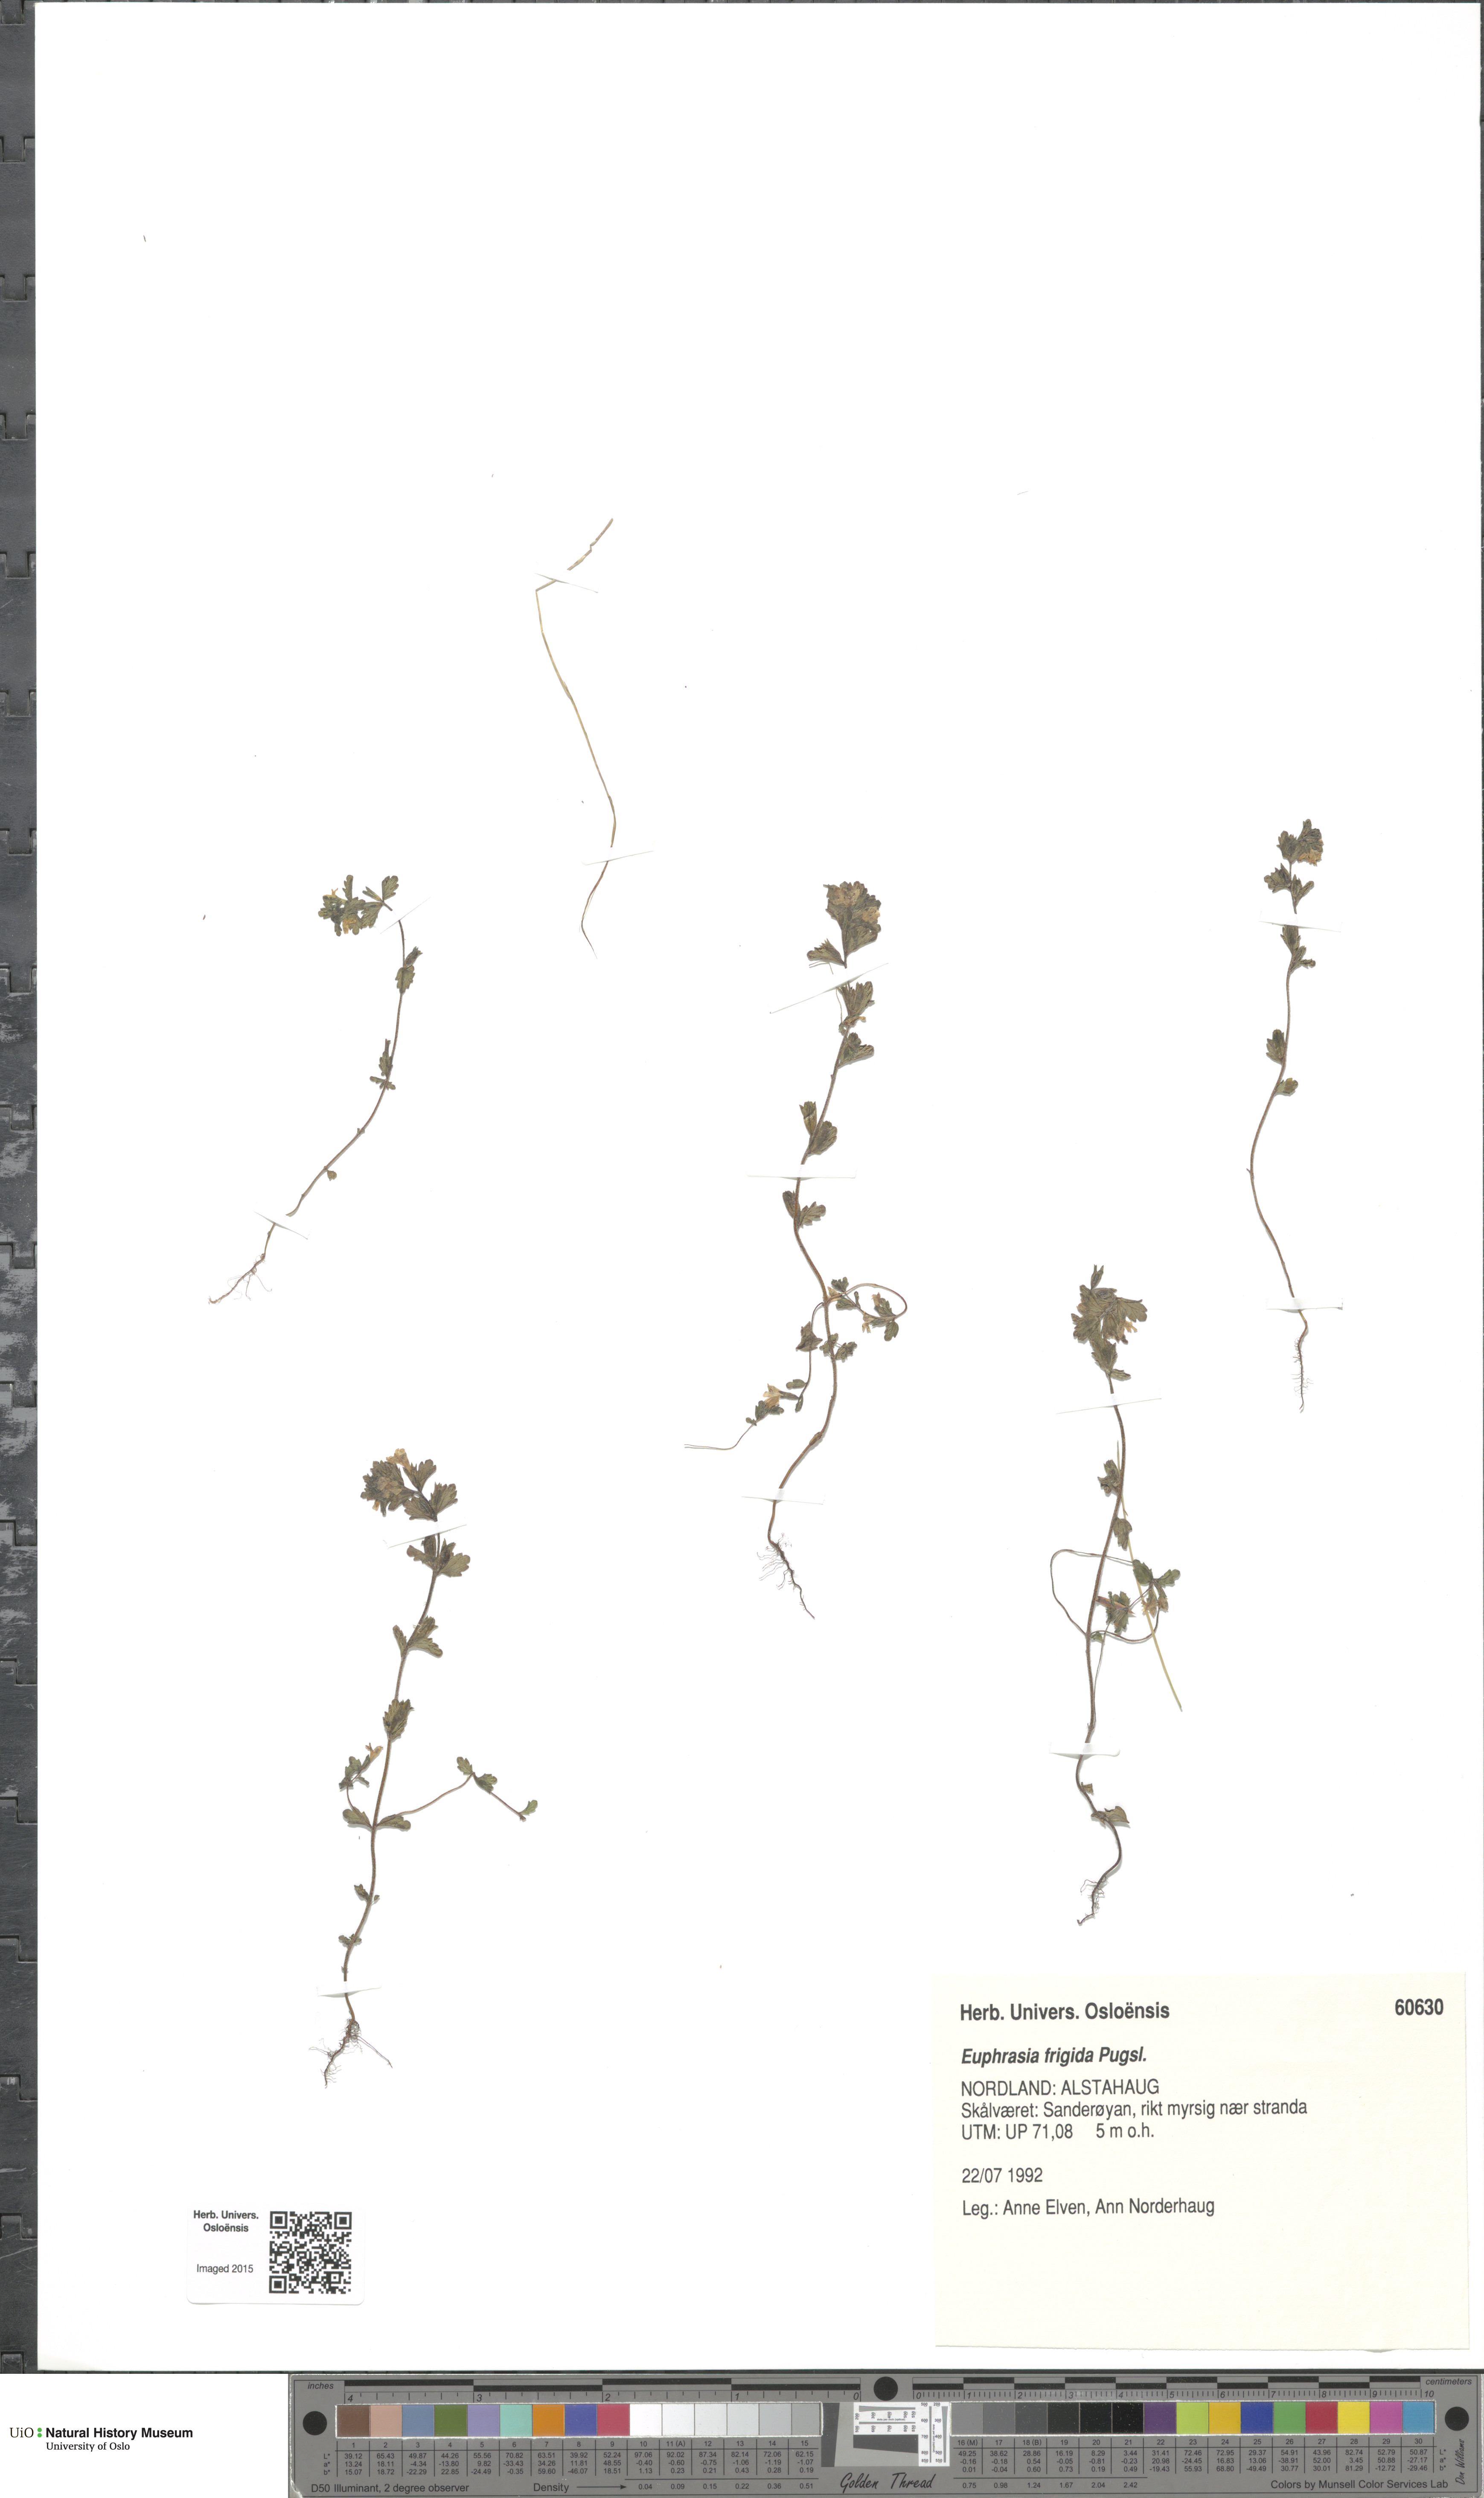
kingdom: Plantae
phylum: Tracheophyta
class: Magnoliopsida
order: Lamiales
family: Orobanchaceae
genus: Euphrasia
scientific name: Euphrasia frigida
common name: An eyebright
